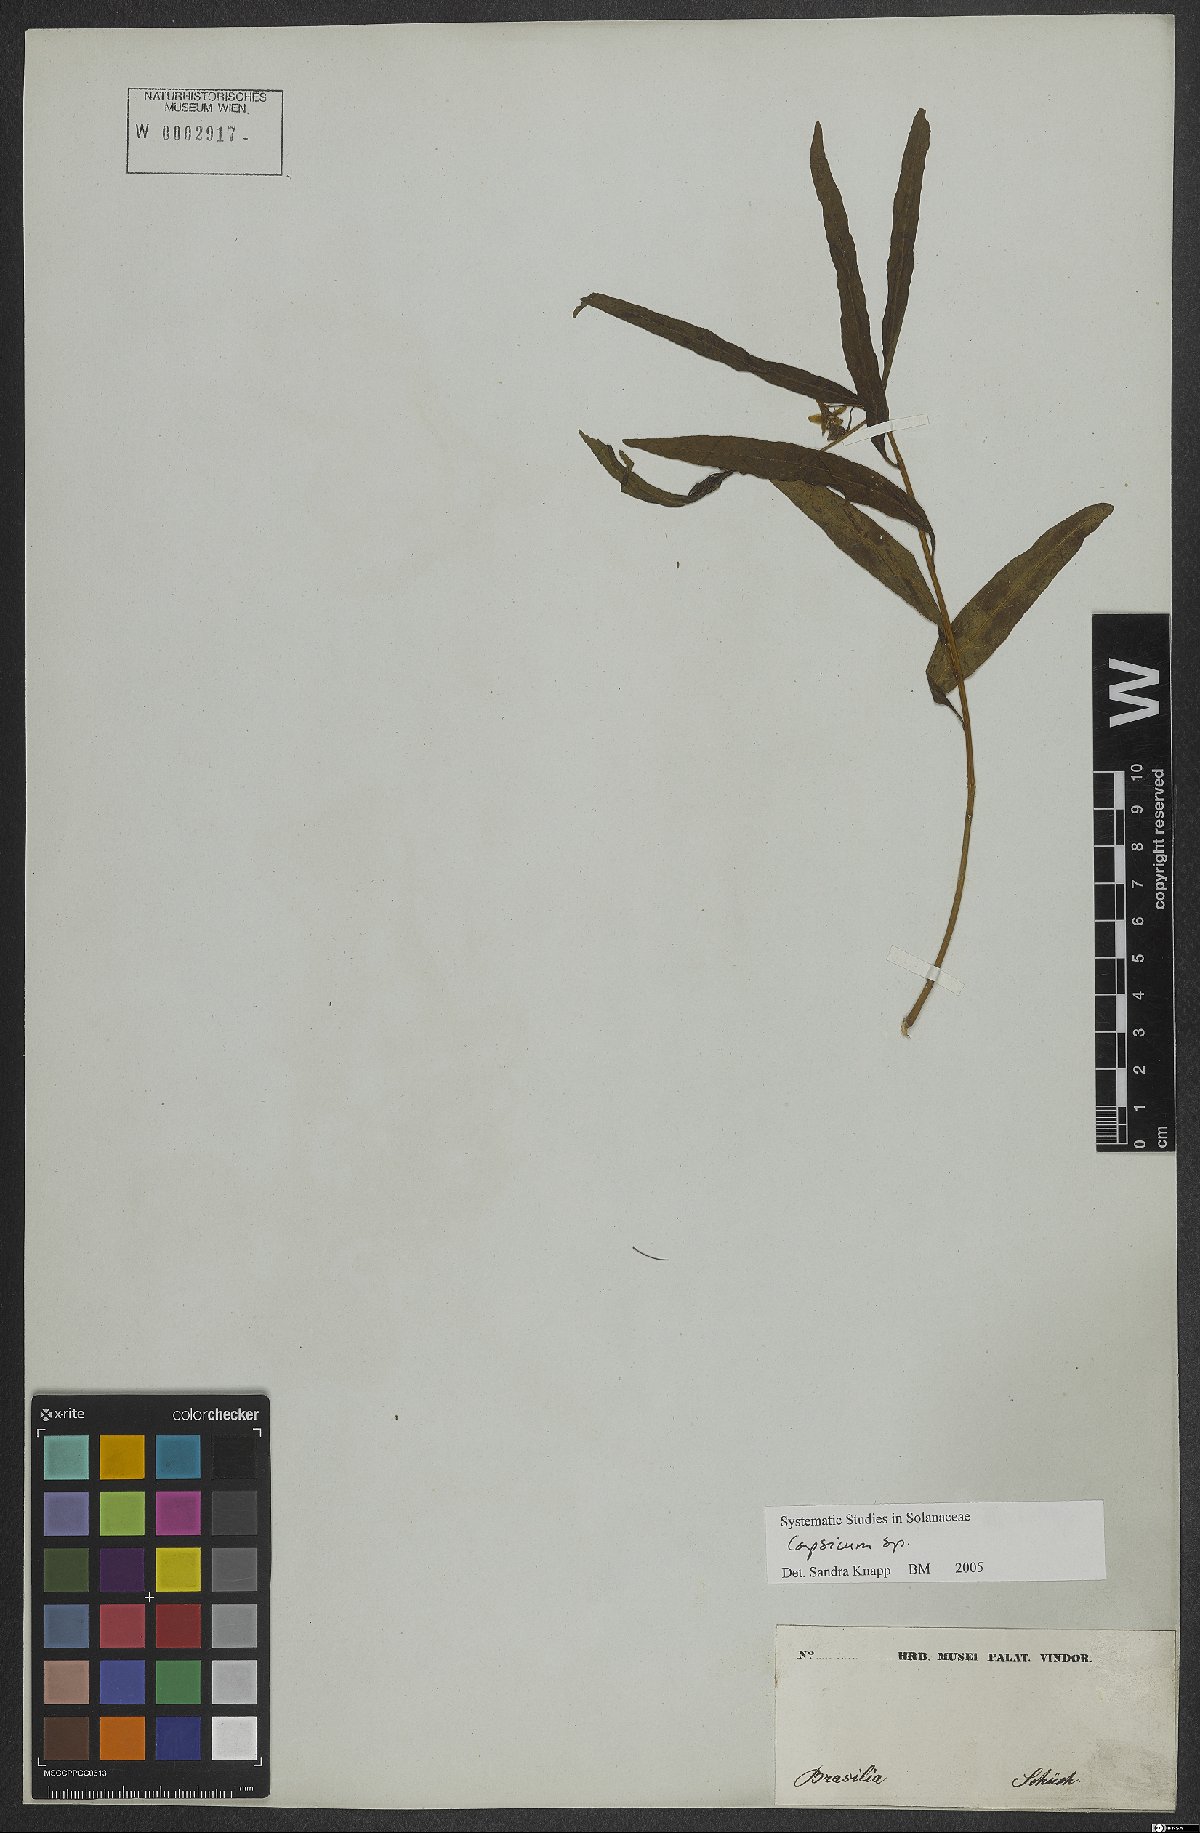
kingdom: Plantae
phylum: Tracheophyta
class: Magnoliopsida
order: Solanales
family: Solanaceae
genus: Capsicum
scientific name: Capsicum
